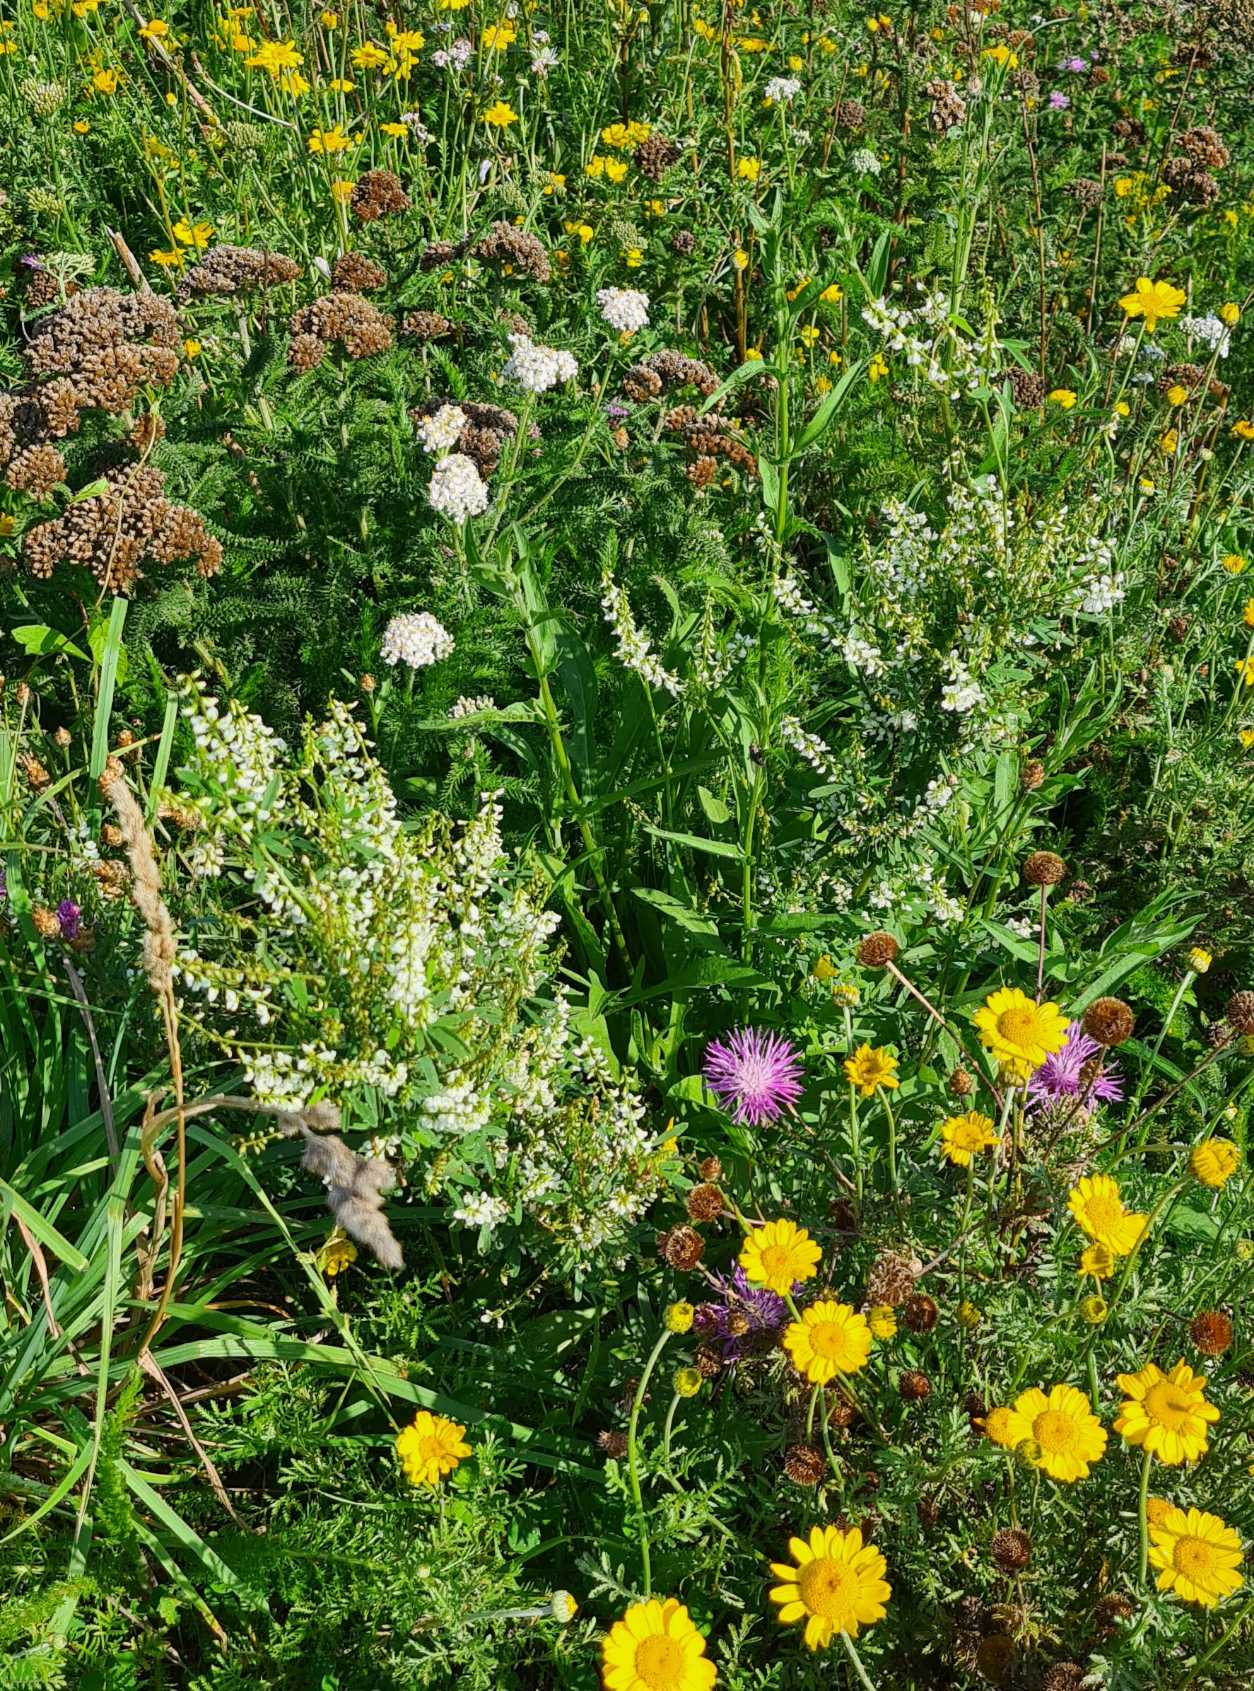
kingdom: Plantae
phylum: Tracheophyta
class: Magnoliopsida
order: Fabales
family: Fabaceae
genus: Melilotus
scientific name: Melilotus albus
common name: Hvid stenkløver
